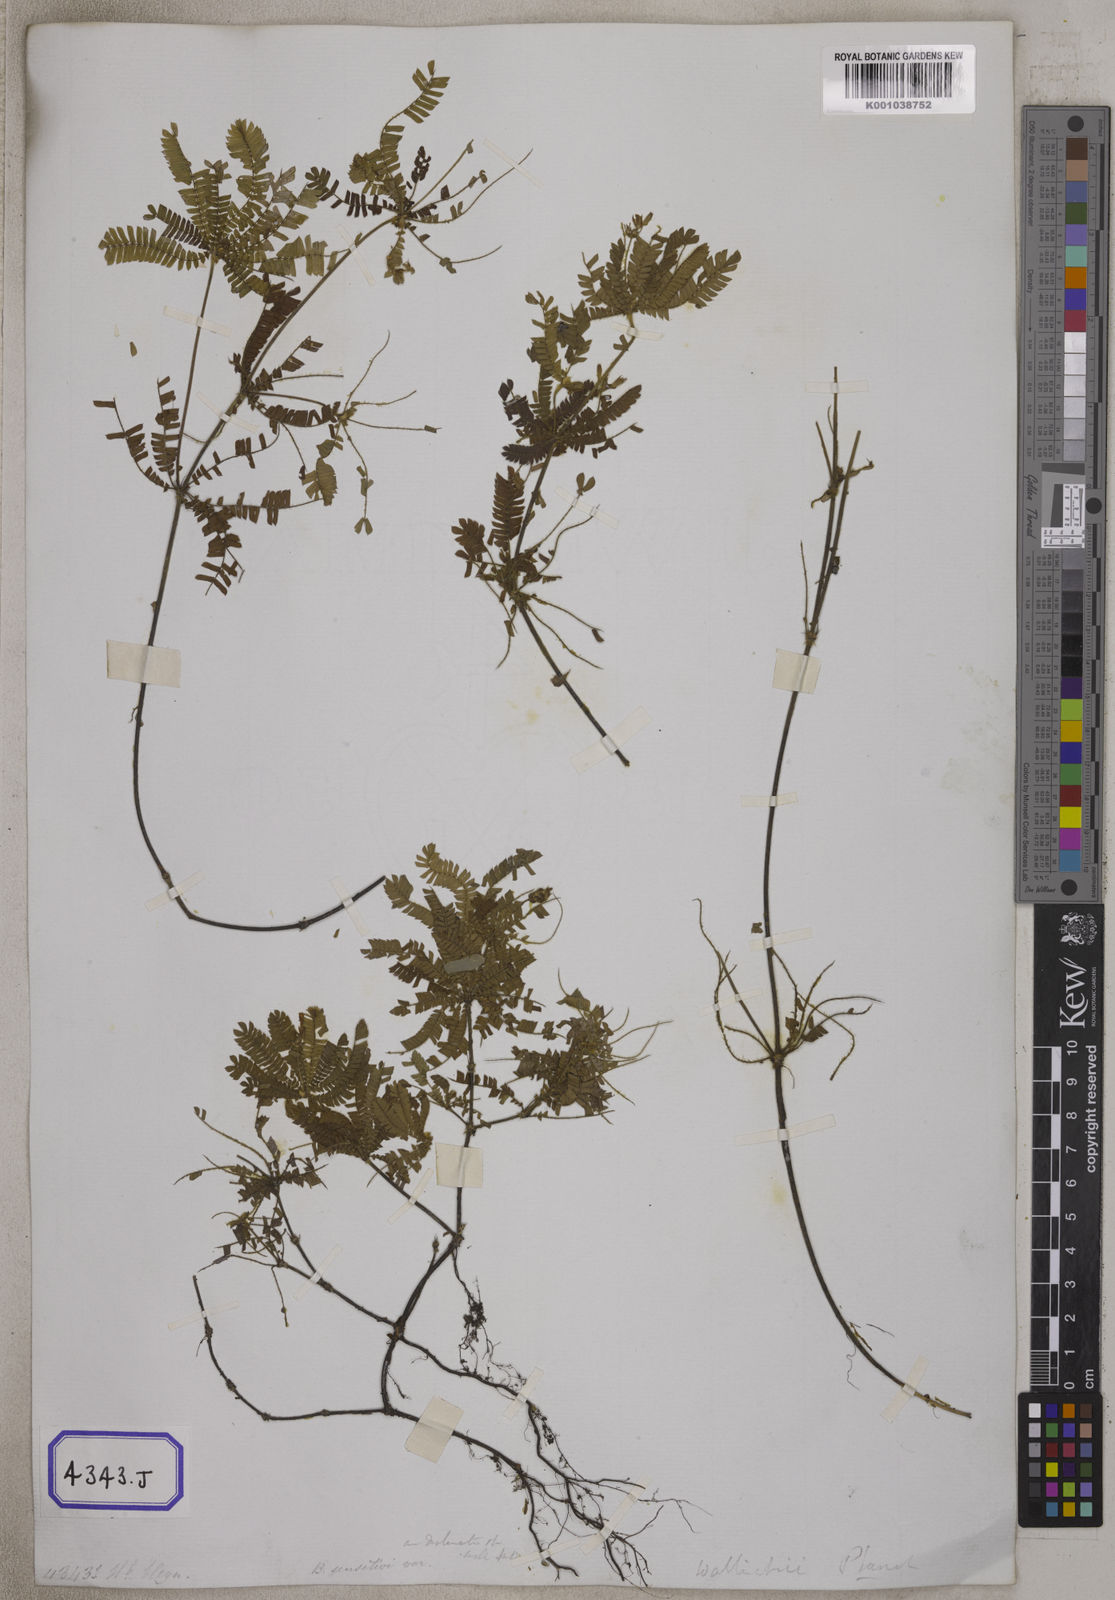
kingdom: Plantae
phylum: Tracheophyta
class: Magnoliopsida
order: Oxalidales
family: Oxalidaceae
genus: Biophytum
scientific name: Biophytum sensitivum
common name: Lifeplant
